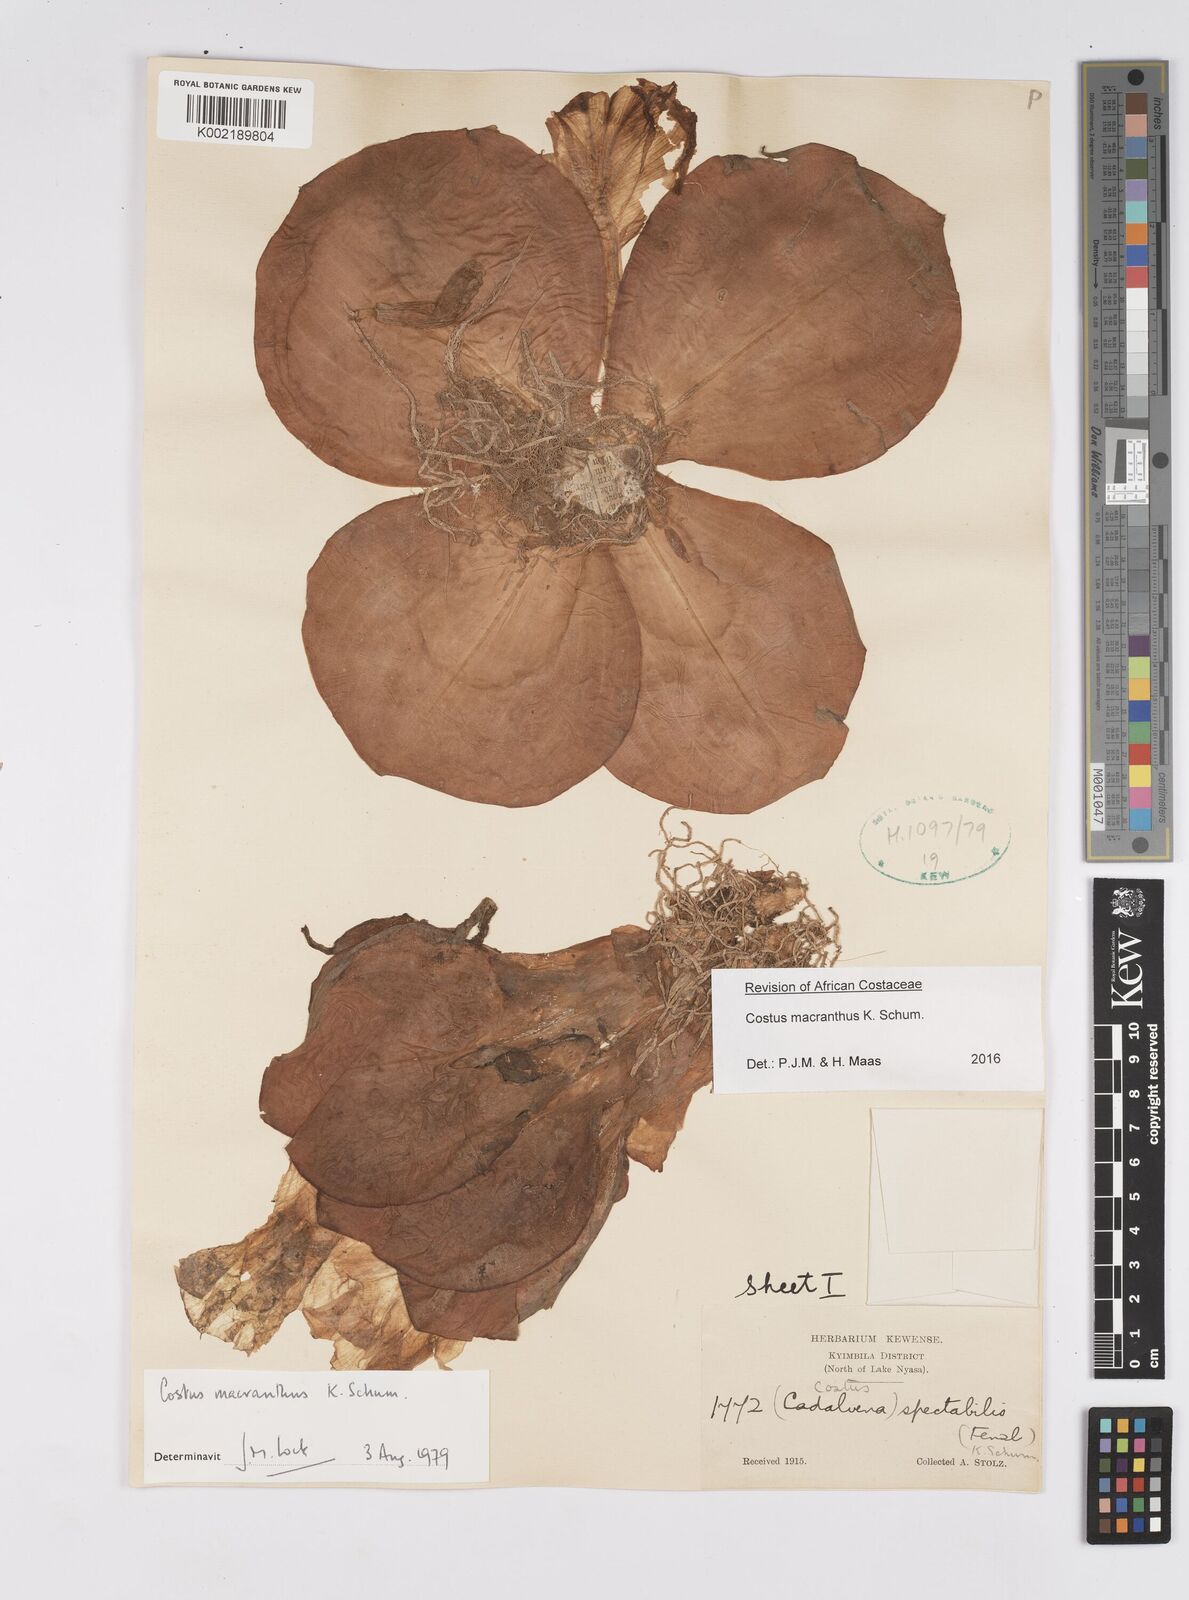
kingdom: Plantae
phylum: Tracheophyta
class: Liliopsida
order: Zingiberales
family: Costaceae
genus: Costus
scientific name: Costus macranthus
